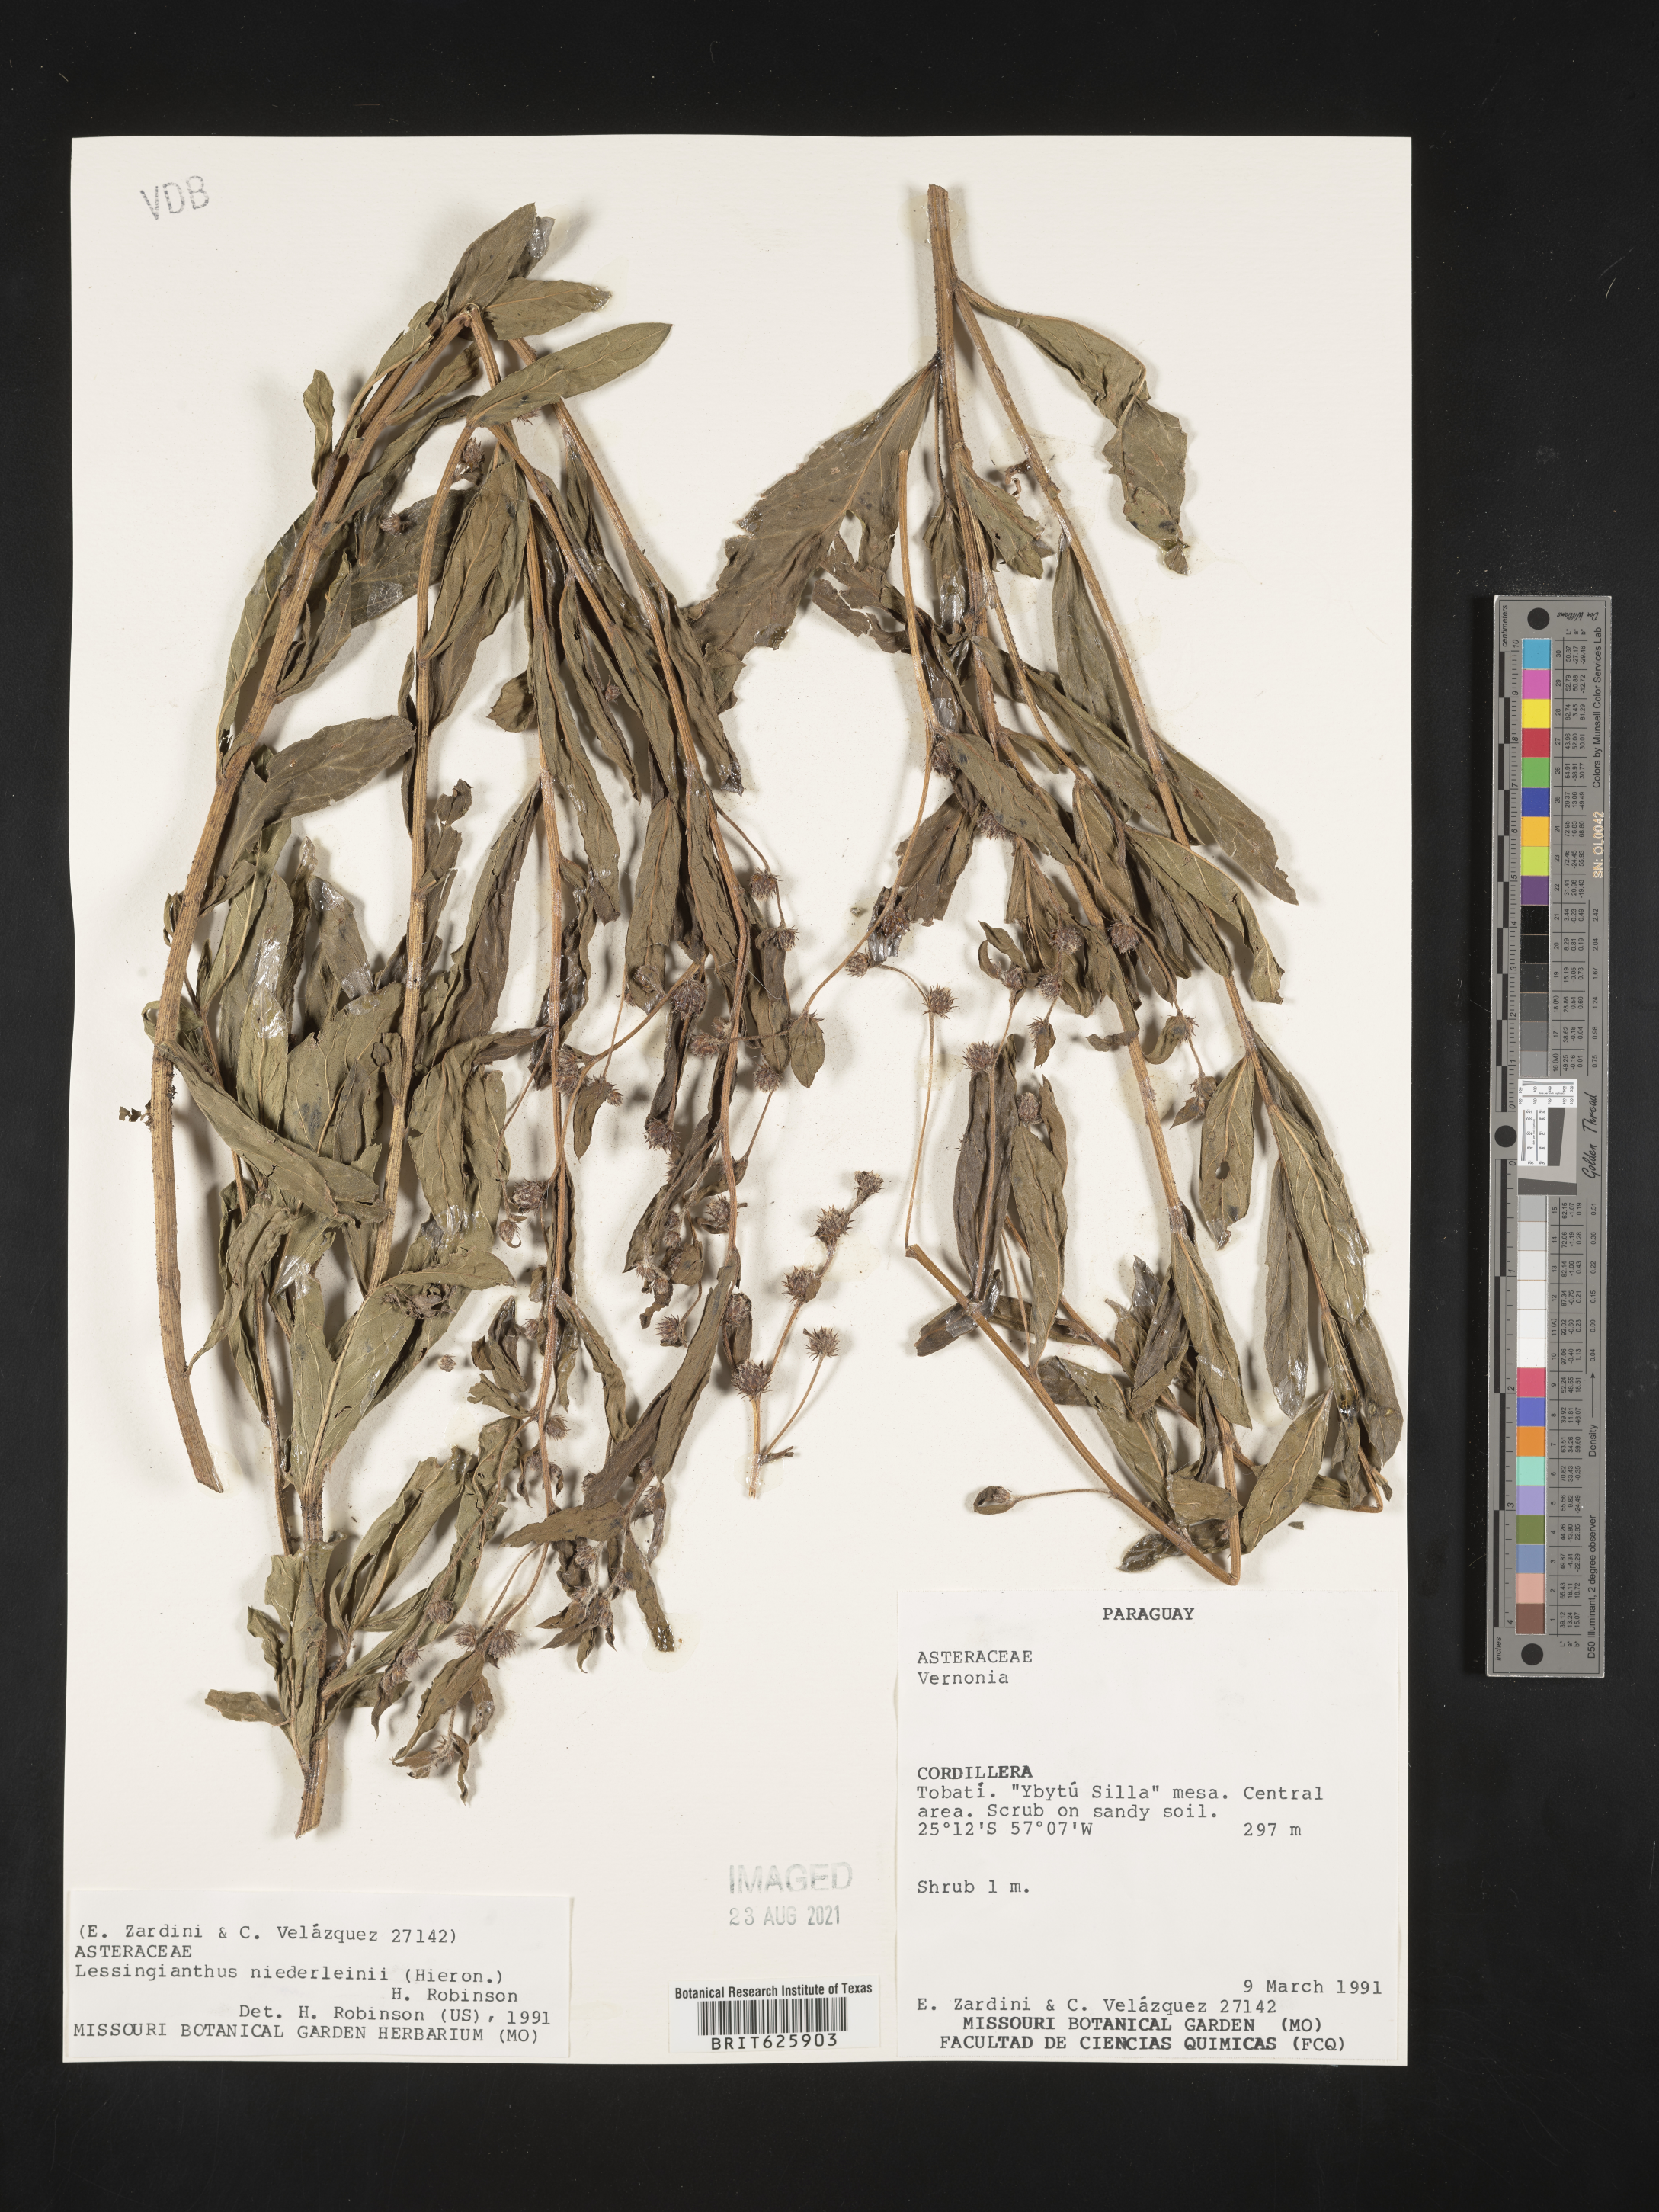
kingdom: Plantae
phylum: Tracheophyta
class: Magnoliopsida
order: Asterales
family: Asteraceae
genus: Lessingianthus
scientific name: Lessingianthus niederleinii
